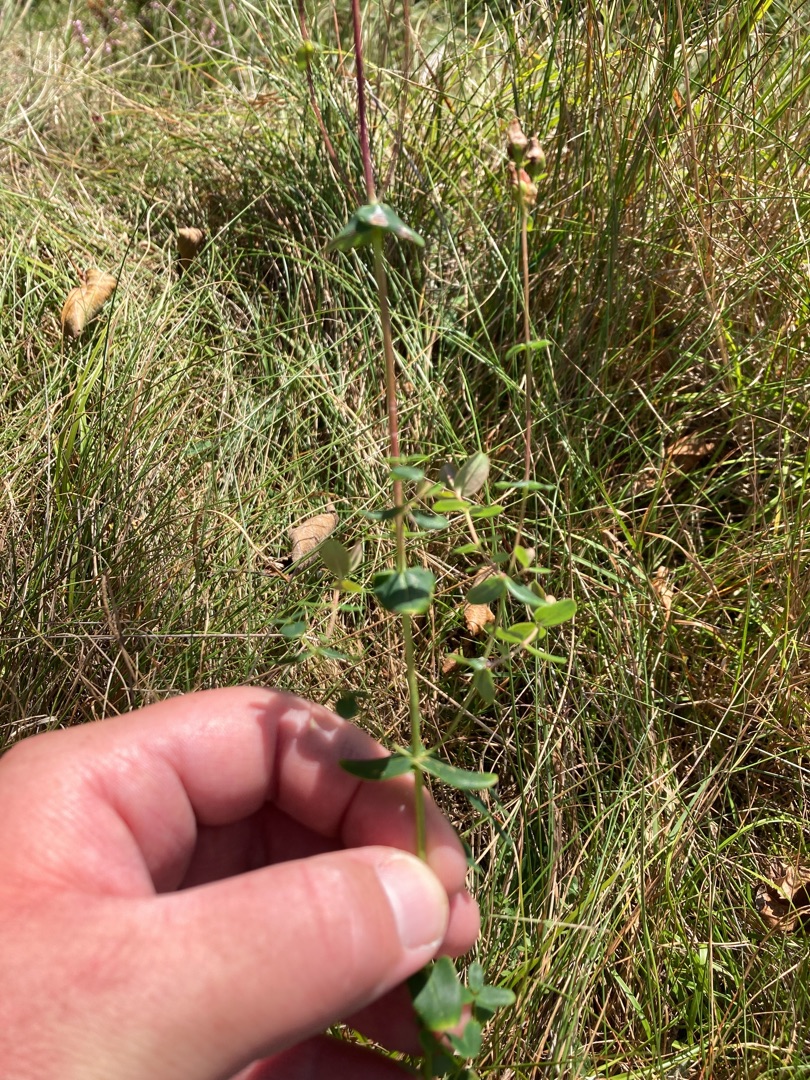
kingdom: Plantae
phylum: Tracheophyta
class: Magnoliopsida
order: Malpighiales
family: Hypericaceae
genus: Hypericum
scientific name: Hypericum pulchrum
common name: Smuk perikon
